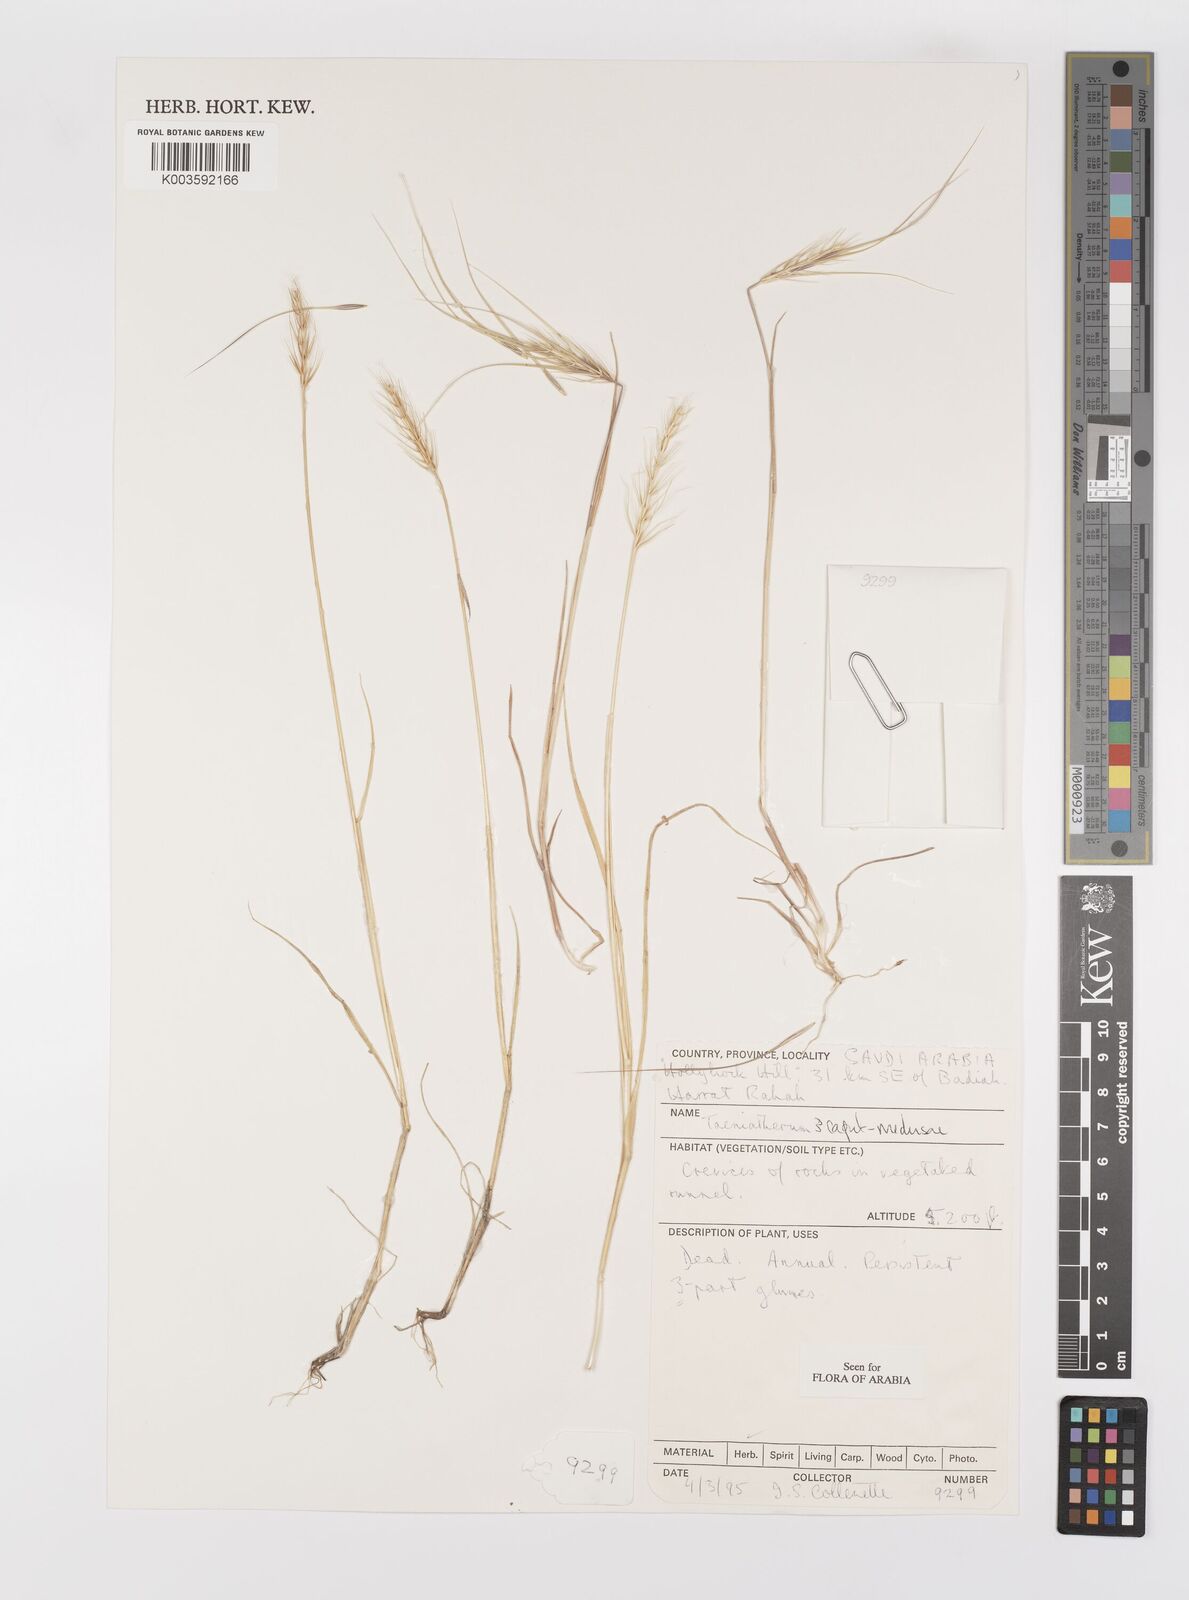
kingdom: Plantae
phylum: Tracheophyta
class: Liliopsida
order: Poales
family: Poaceae
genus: Taeniatherum
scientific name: Taeniatherum caput-medusae
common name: Medusahead
